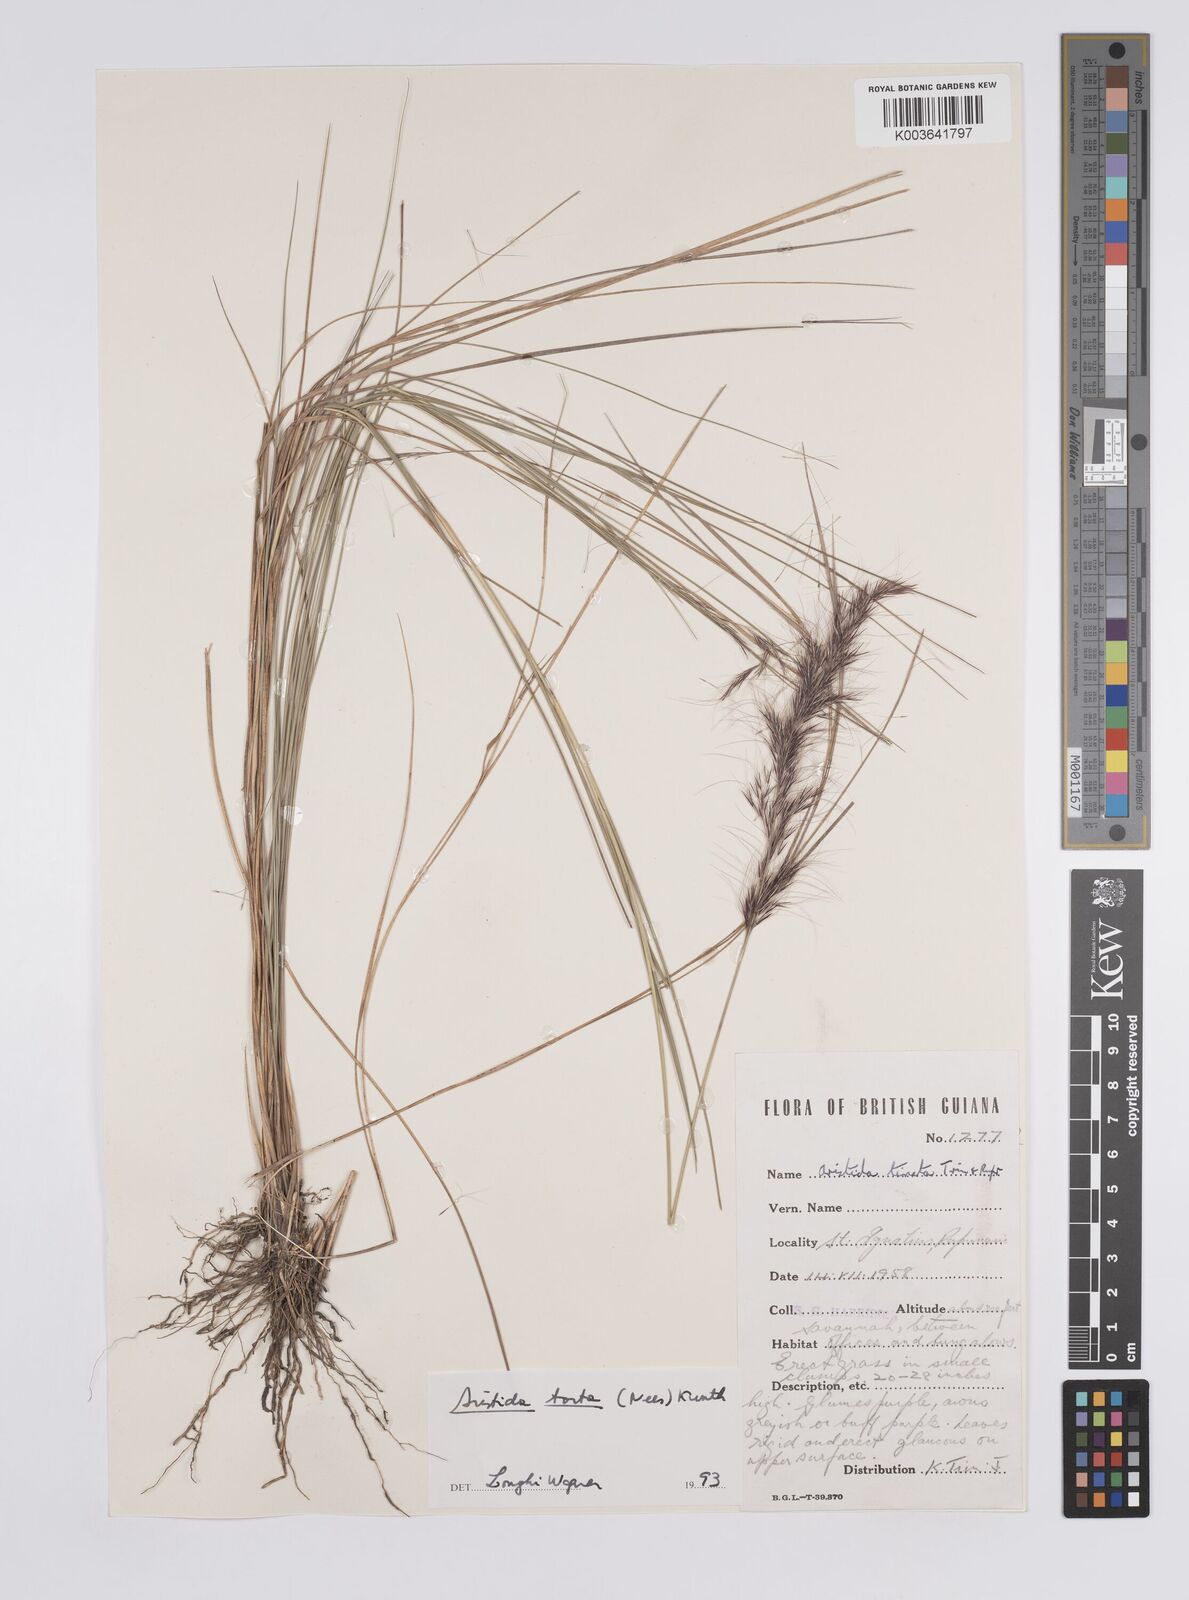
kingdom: Plantae
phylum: Tracheophyta
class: Liliopsida
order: Poales
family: Poaceae
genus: Aristida
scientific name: Aristida torta
